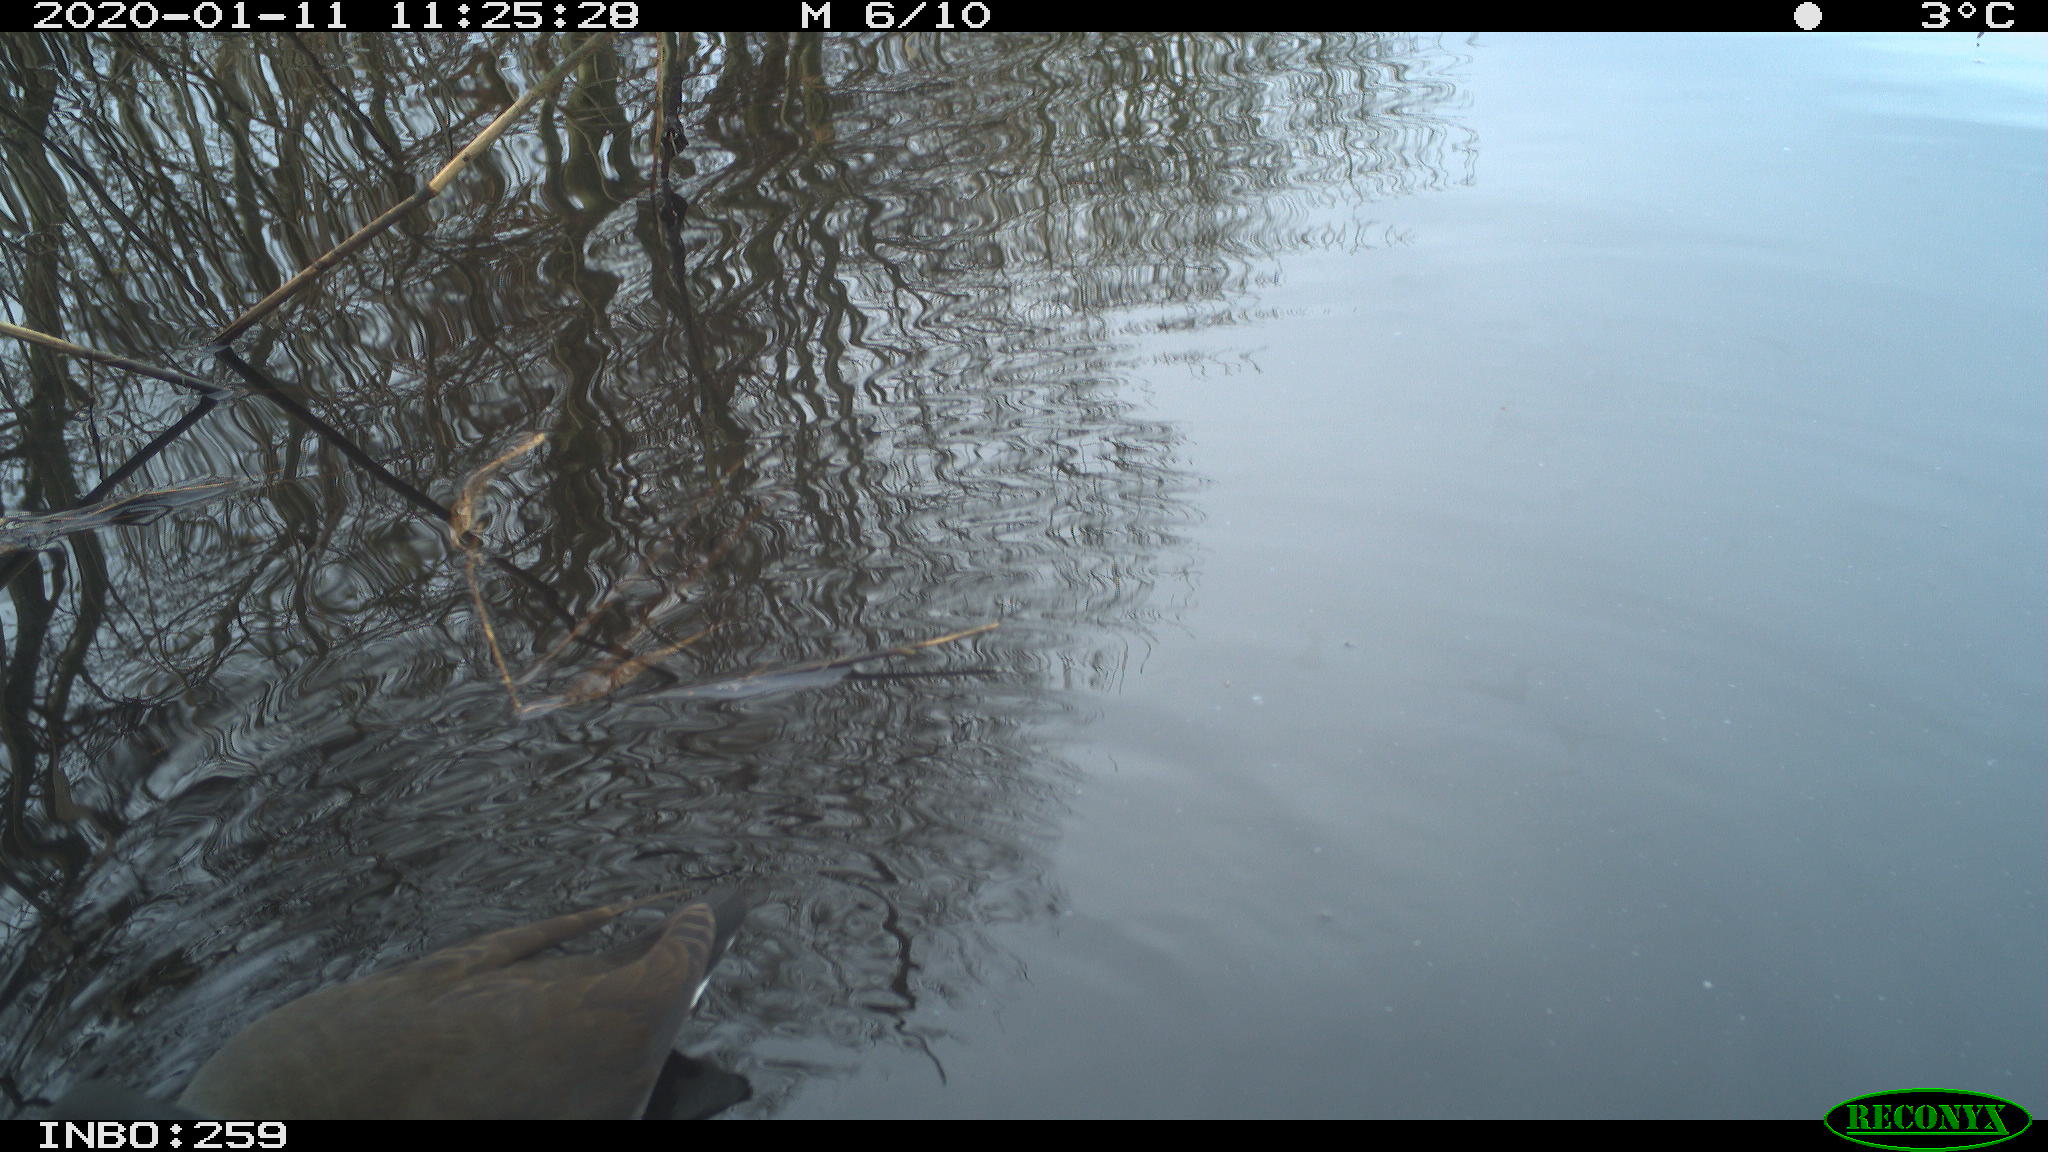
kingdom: Animalia
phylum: Chordata
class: Aves
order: Gruiformes
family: Rallidae
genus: Gallinula
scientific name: Gallinula chloropus
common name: Common moorhen
